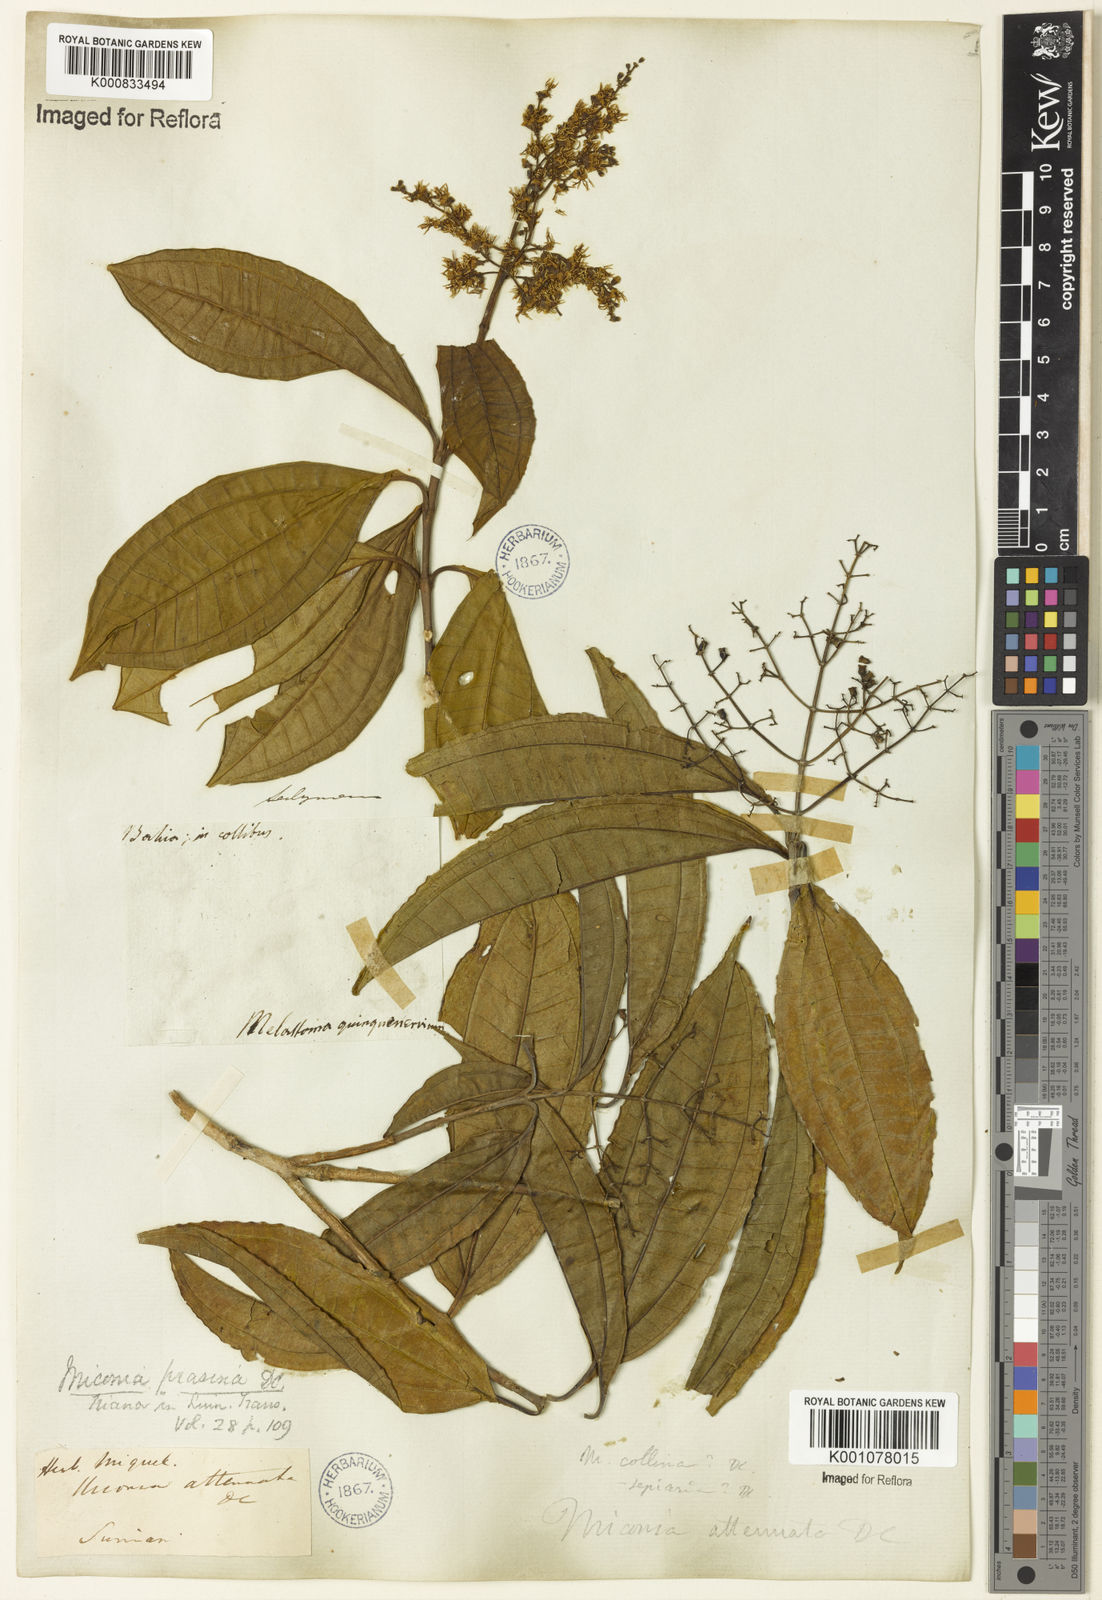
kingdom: Plantae
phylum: Tracheophyta
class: Magnoliopsida
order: Myrtales
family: Melastomataceae
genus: Miconia
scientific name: Miconia prasina
